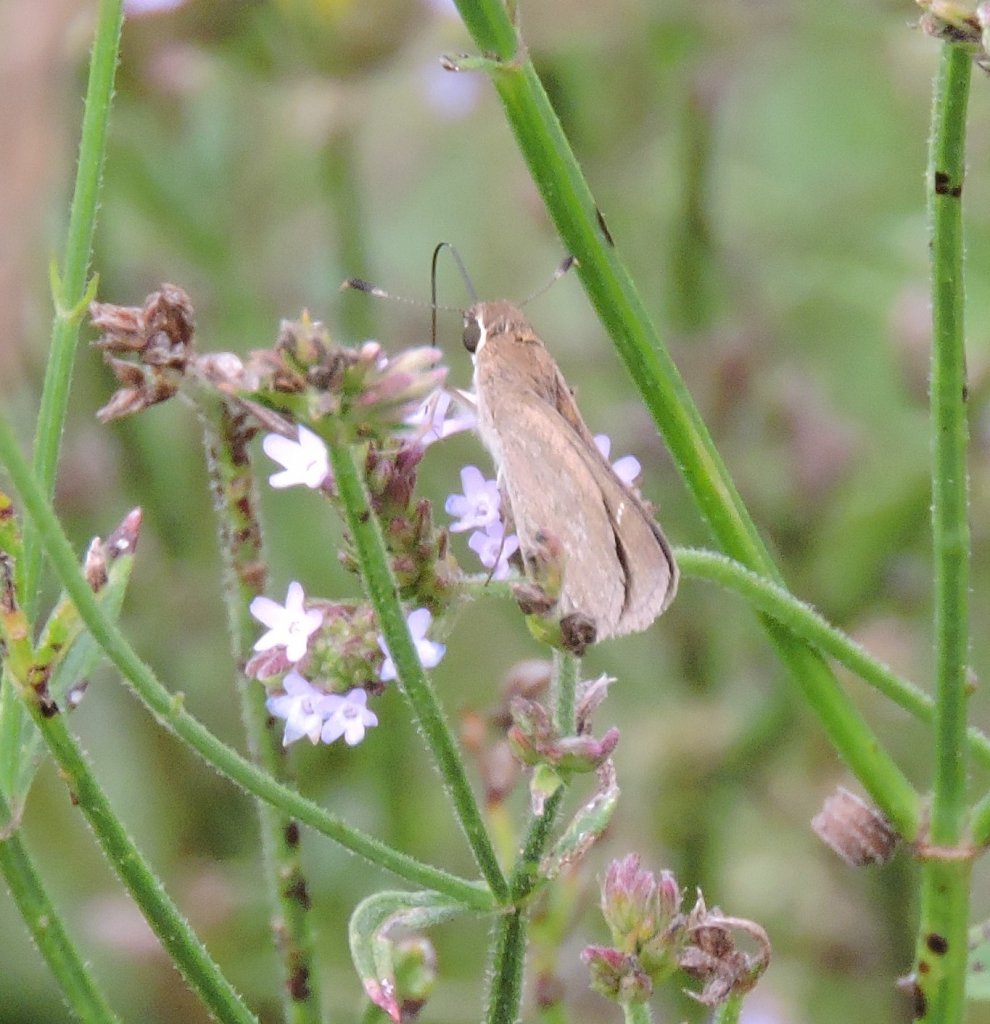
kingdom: Animalia
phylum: Arthropoda
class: Insecta
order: Lepidoptera
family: Hesperiidae
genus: Lerodea
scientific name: Lerodea eufala
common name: Eufala Skipper
